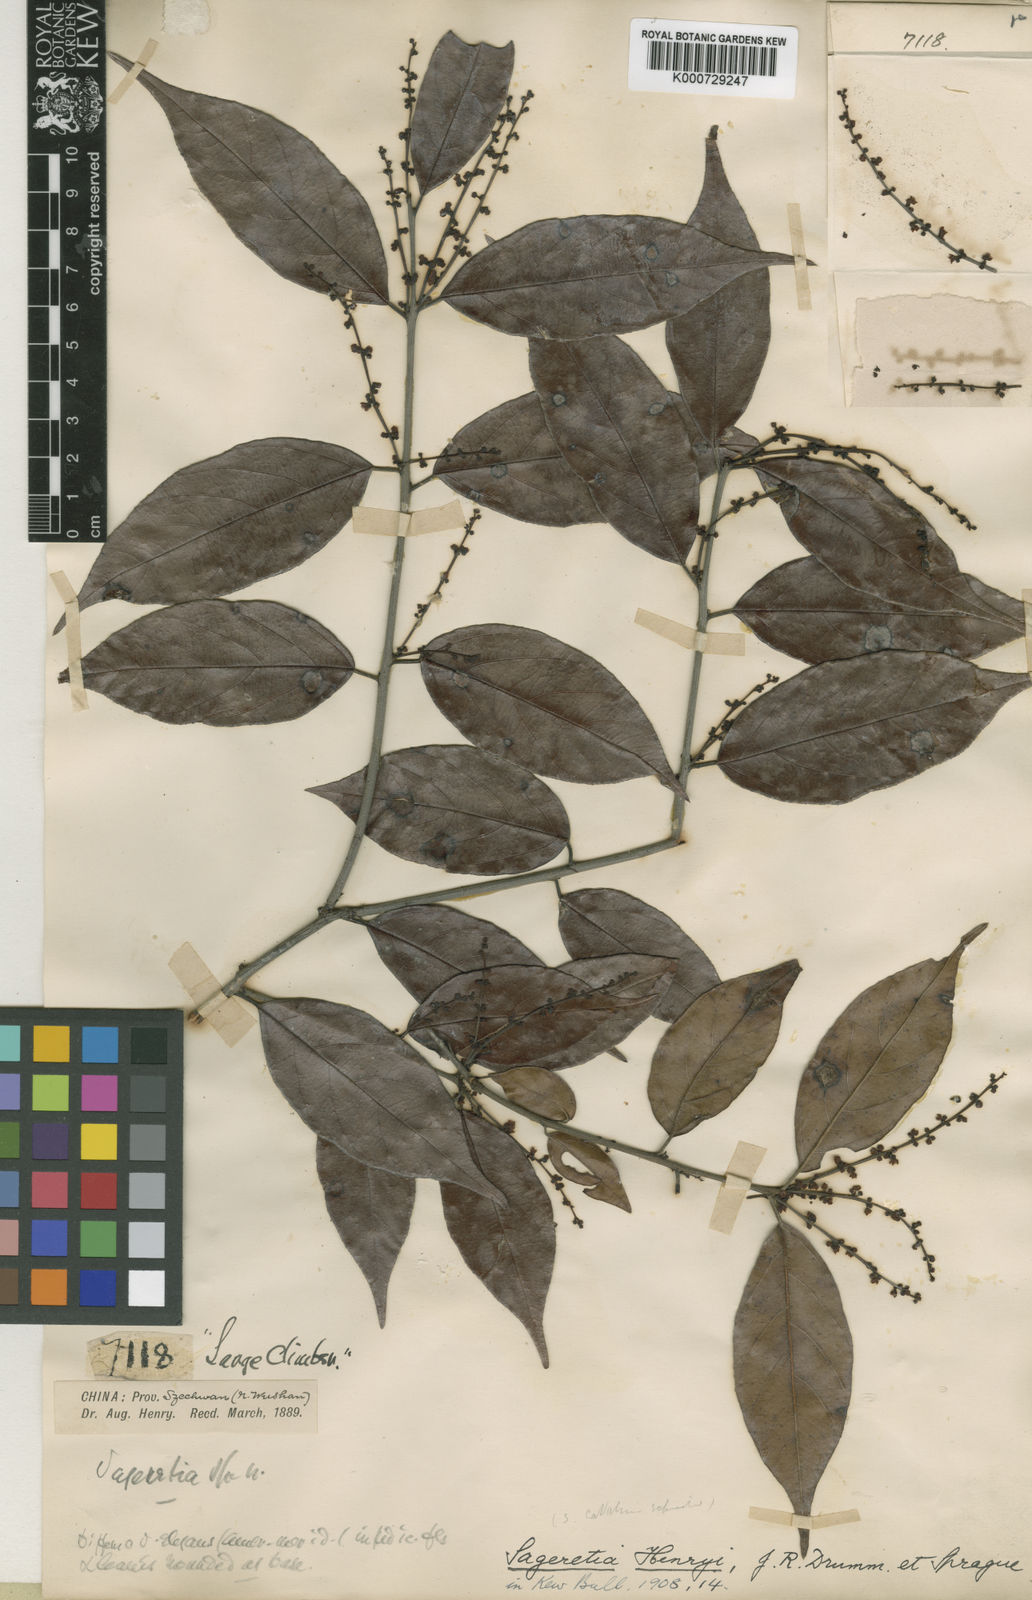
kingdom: Plantae
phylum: Tracheophyta
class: Magnoliopsida
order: Rosales
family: Rhamnaceae
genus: Sageretia
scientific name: Sageretia henryi
